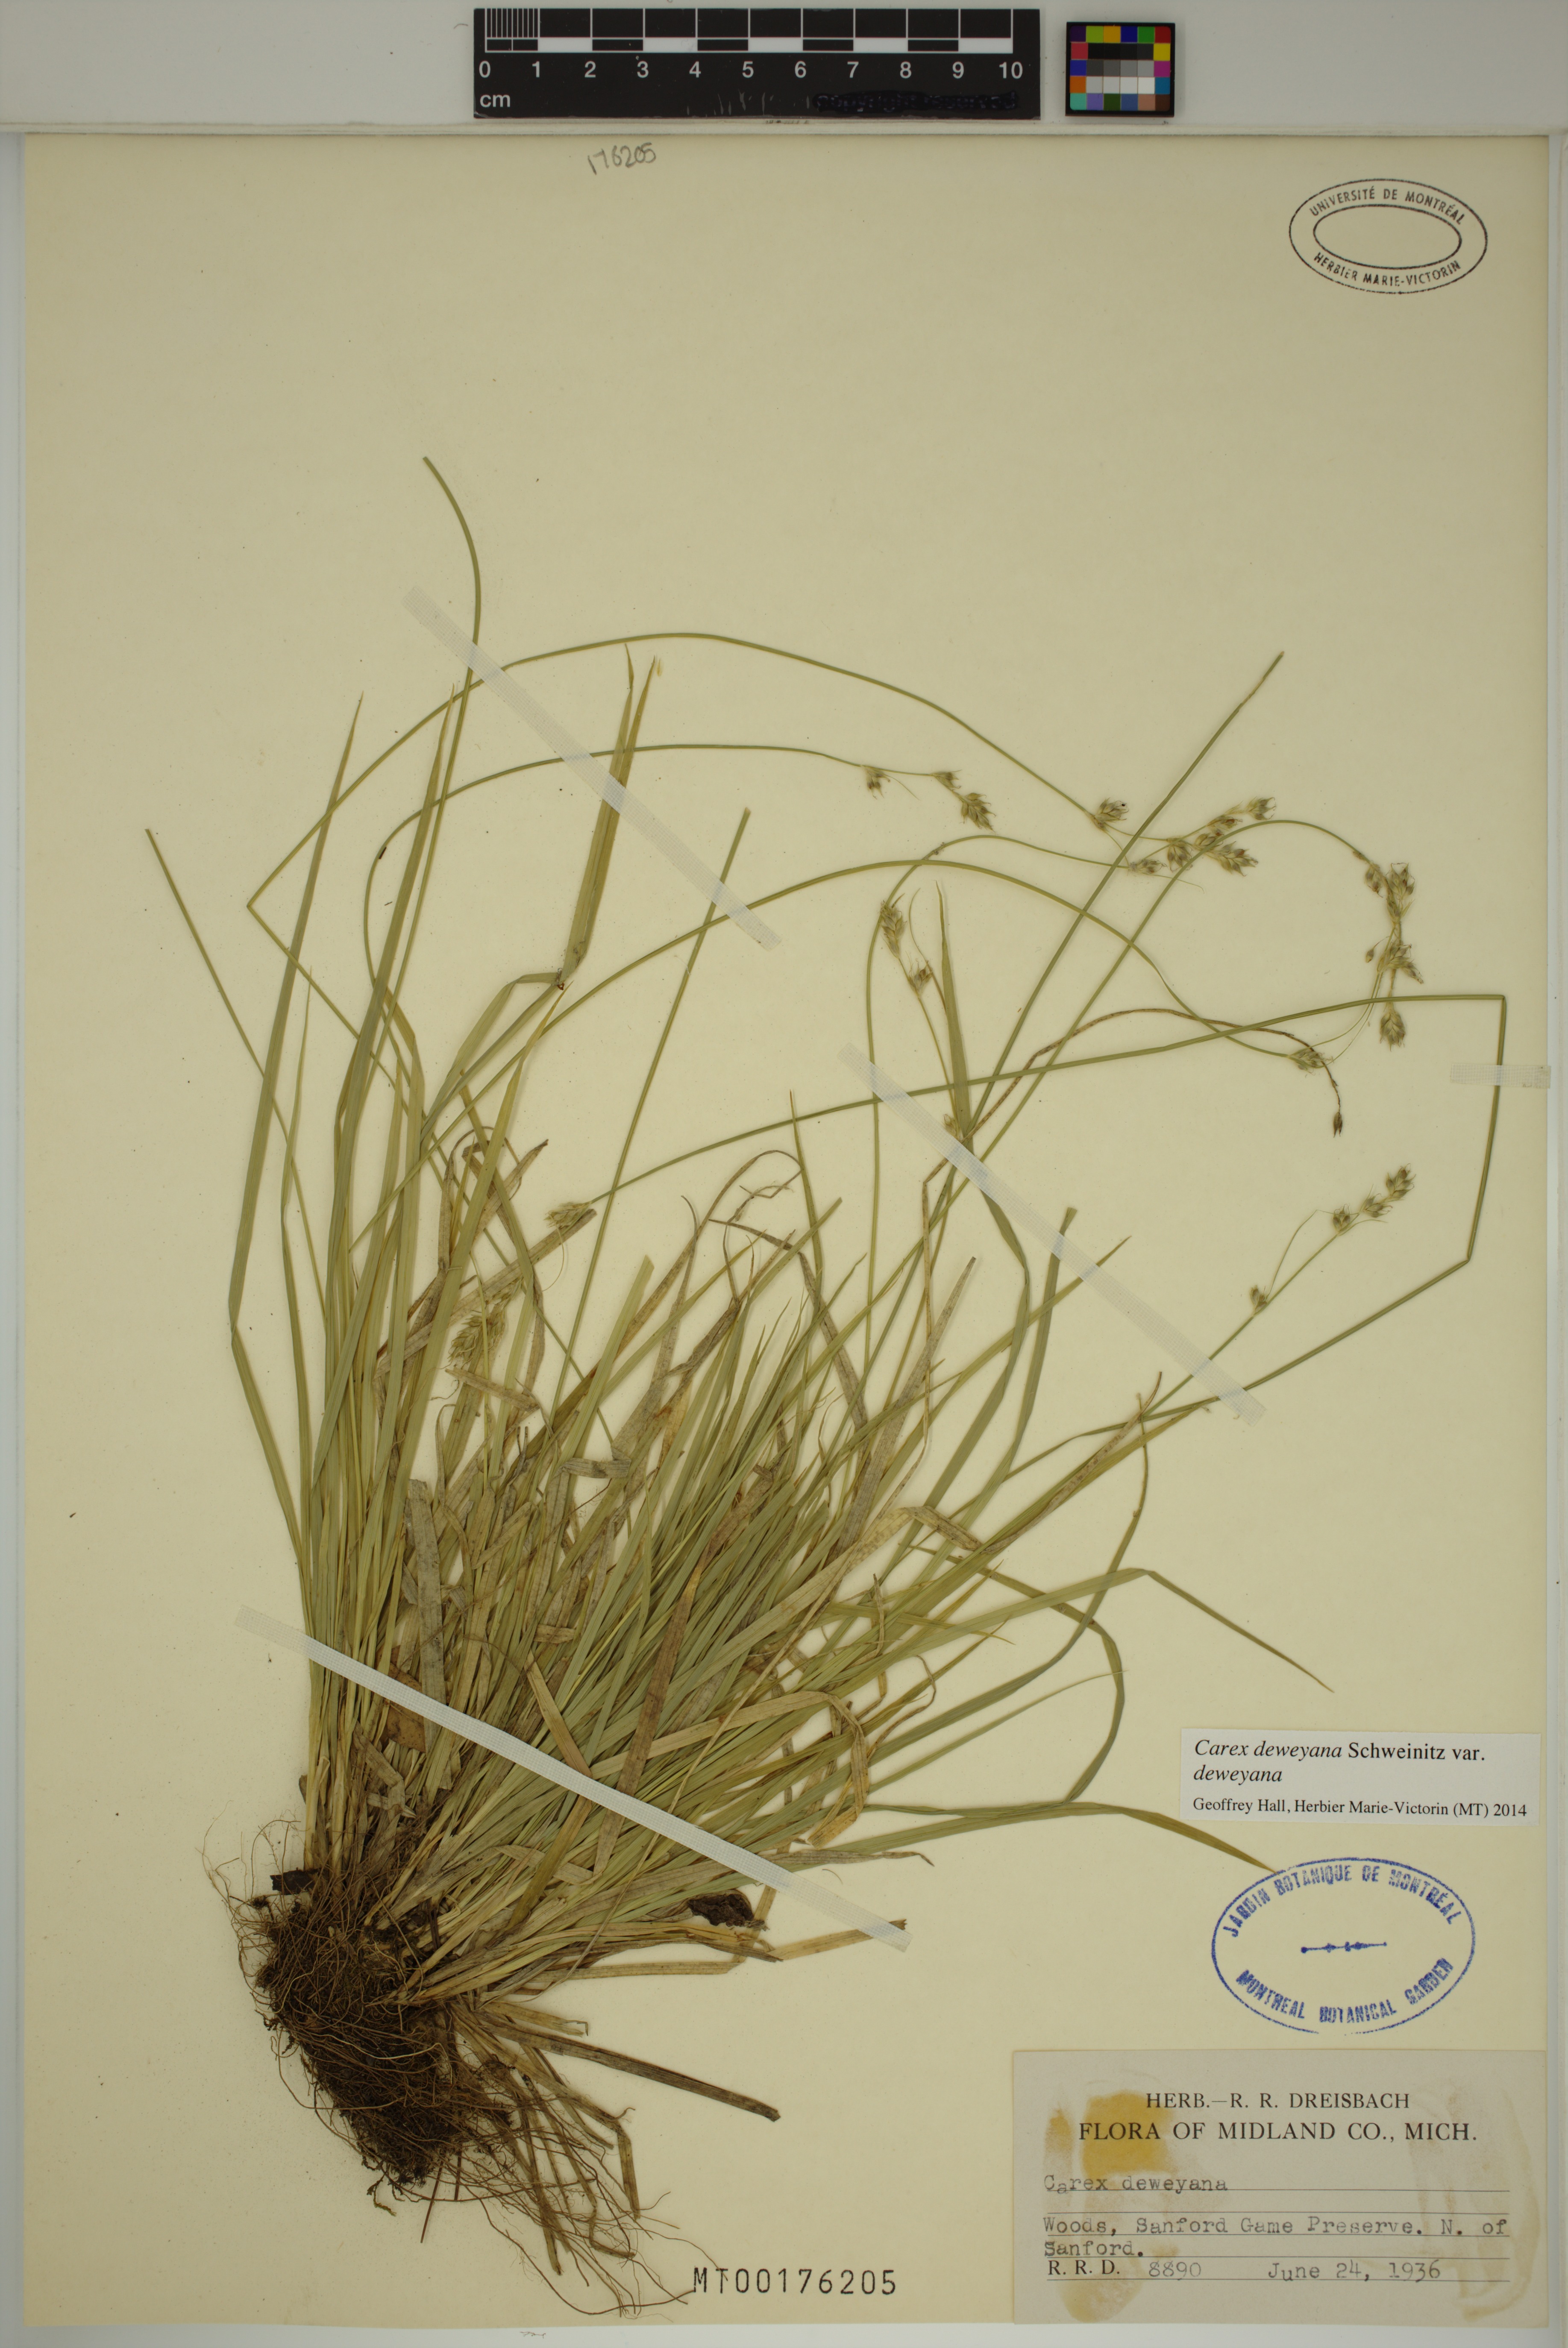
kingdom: Plantae
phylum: Tracheophyta
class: Liliopsida
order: Poales
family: Cyperaceae
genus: Carex
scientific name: Carex deweyana
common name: Dewey's sedge
